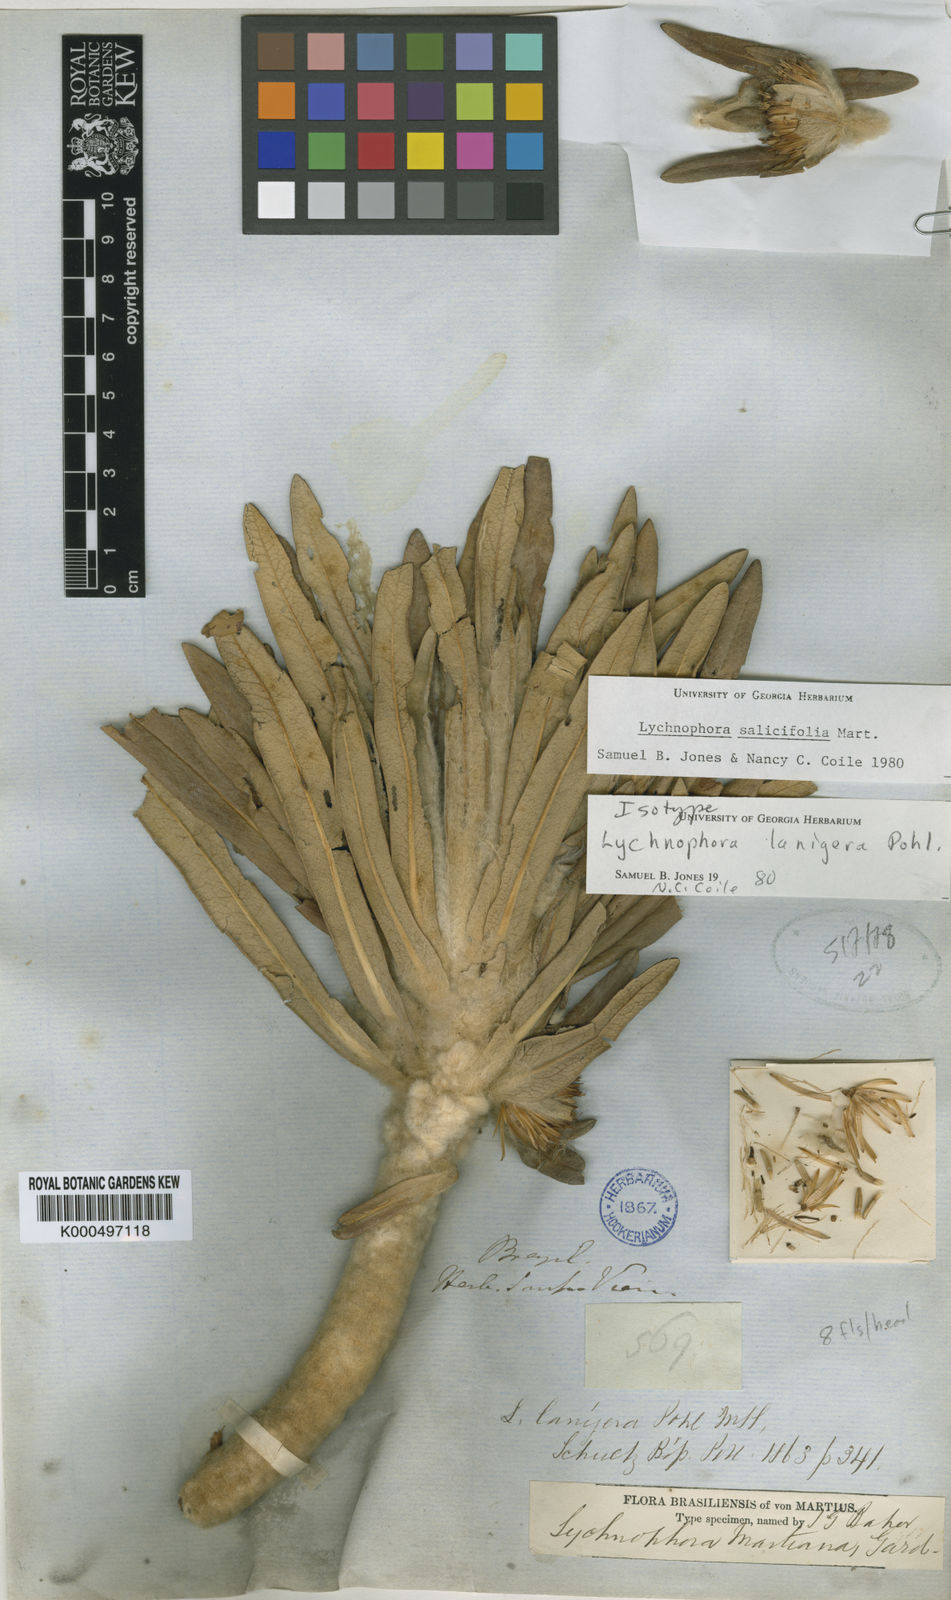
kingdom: Plantae
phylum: Tracheophyta
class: Magnoliopsida
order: Asterales
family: Asteraceae
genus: Lychnophora
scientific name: Lychnophora salicifolia
